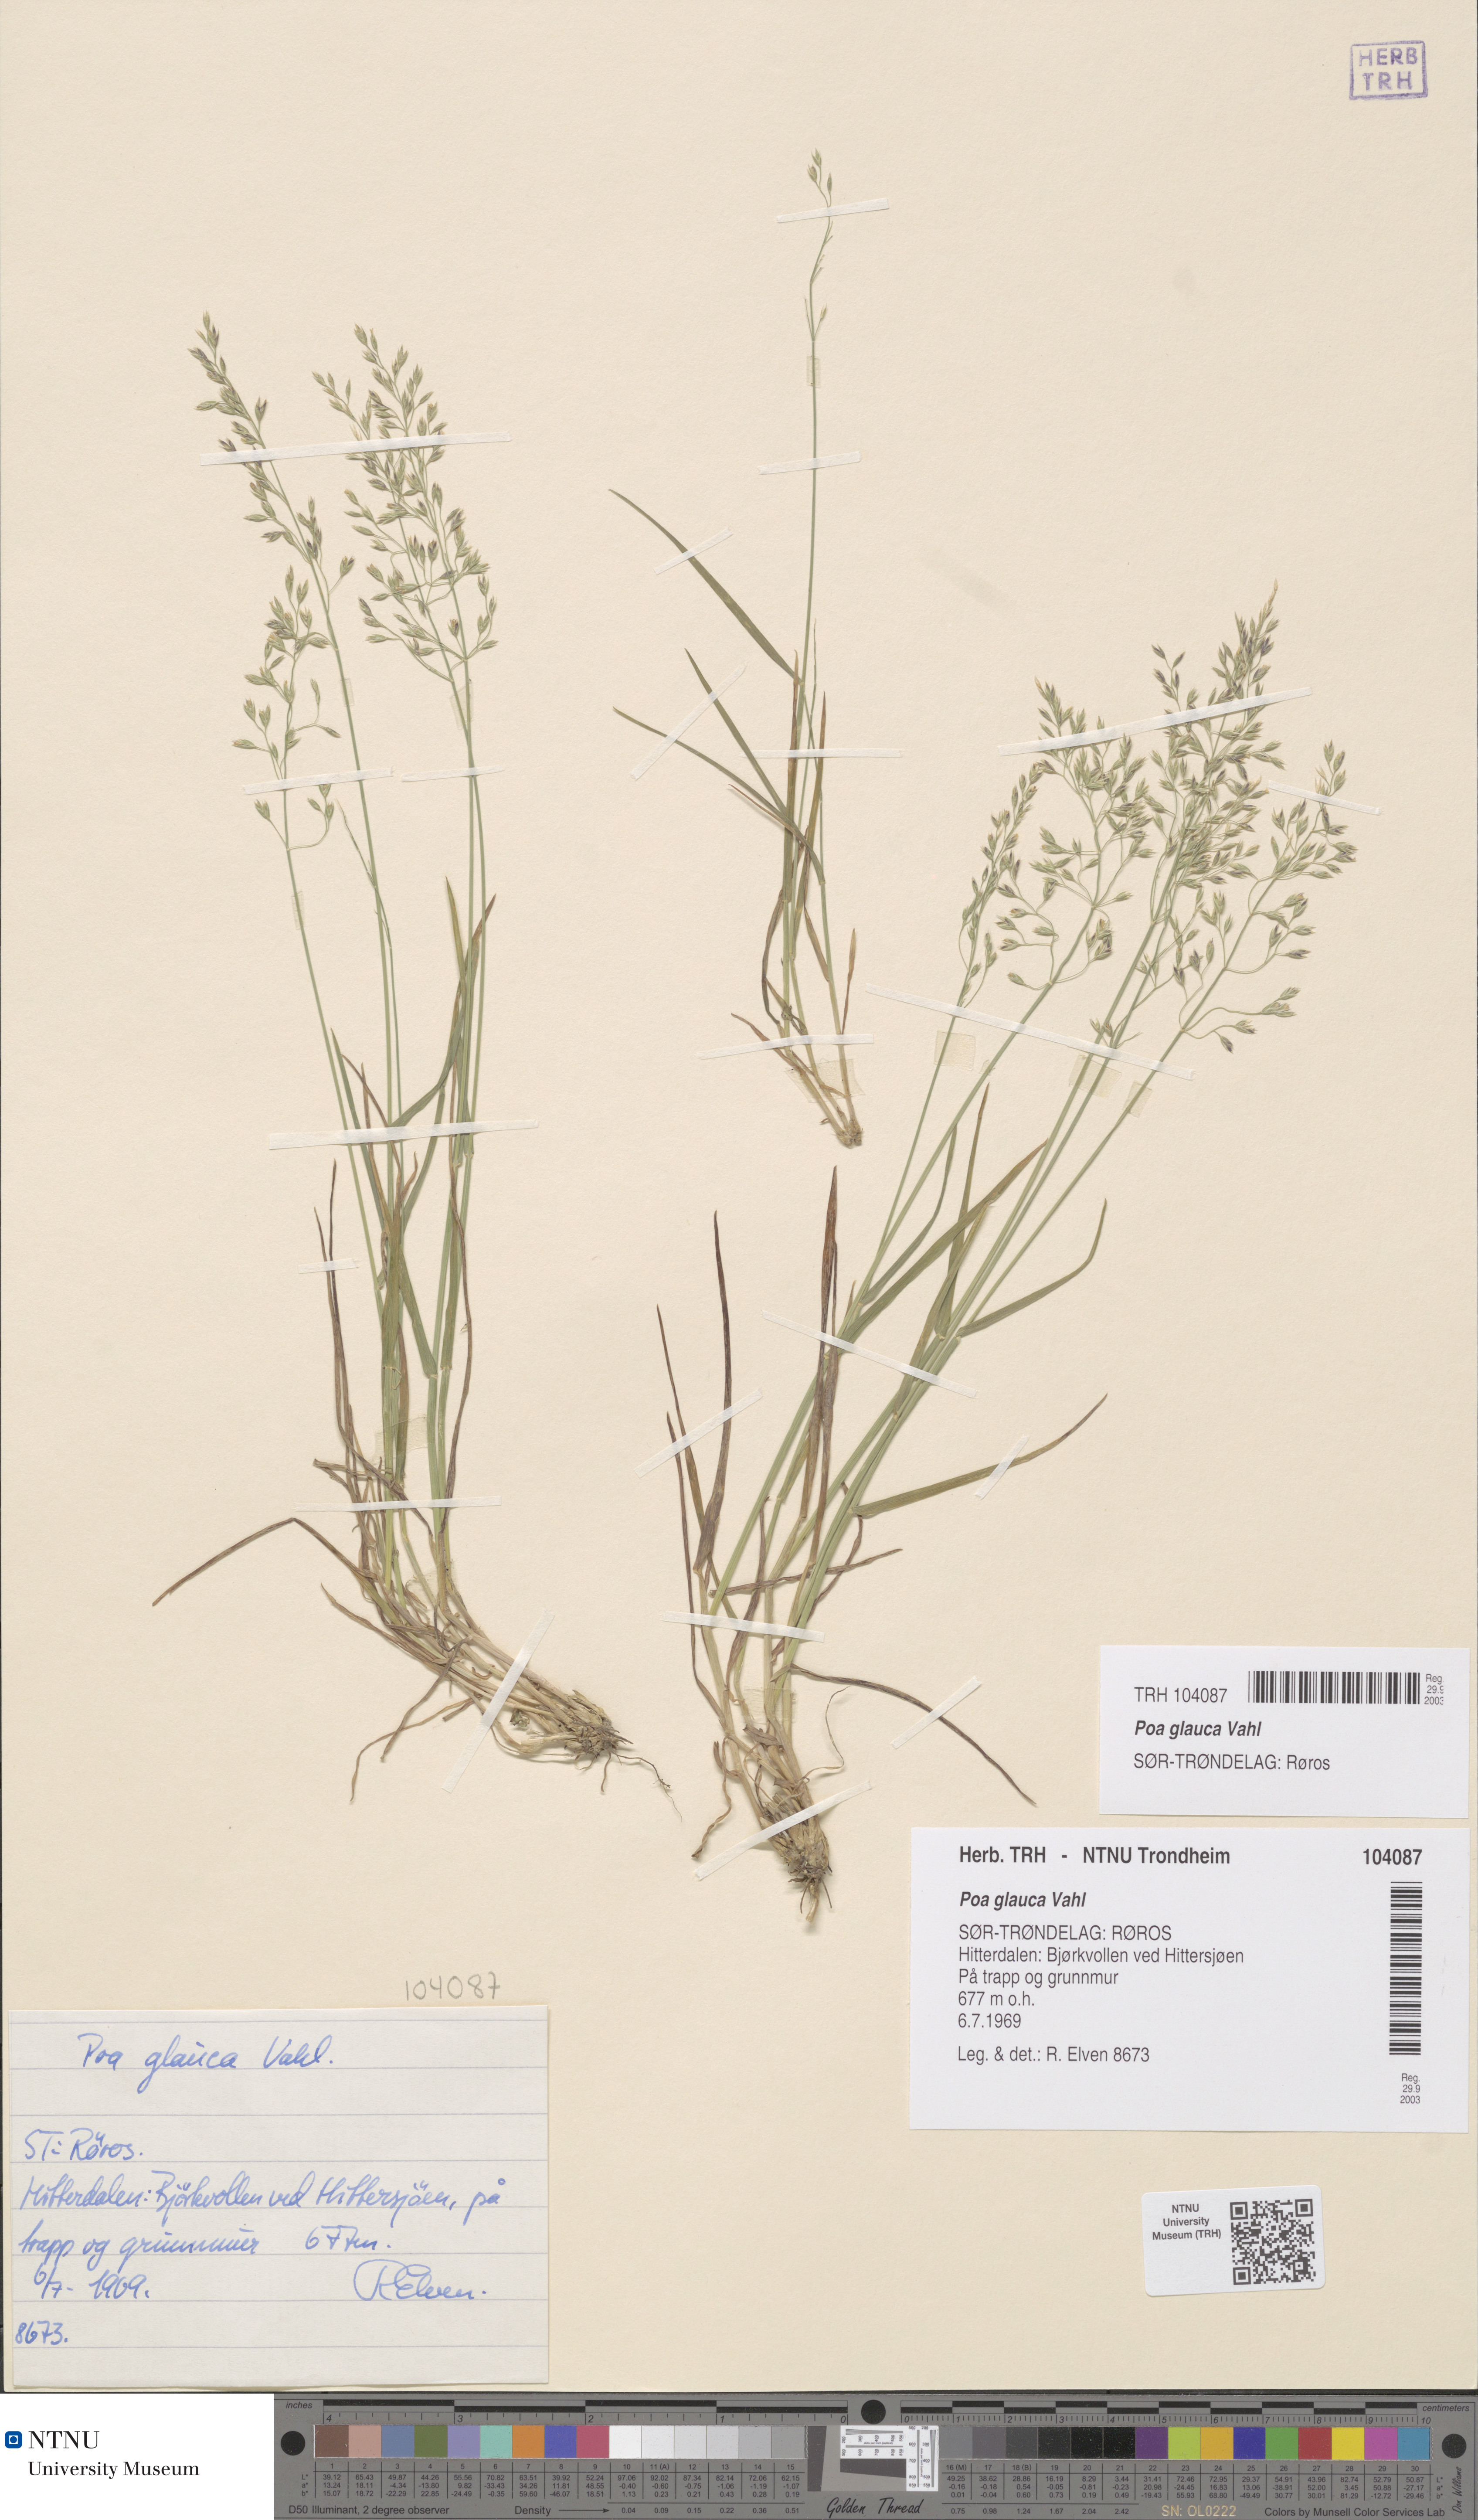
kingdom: Plantae
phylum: Tracheophyta
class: Liliopsida
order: Poales
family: Poaceae
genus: Poa
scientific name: Poa glauca
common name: Glaucous bluegrass
